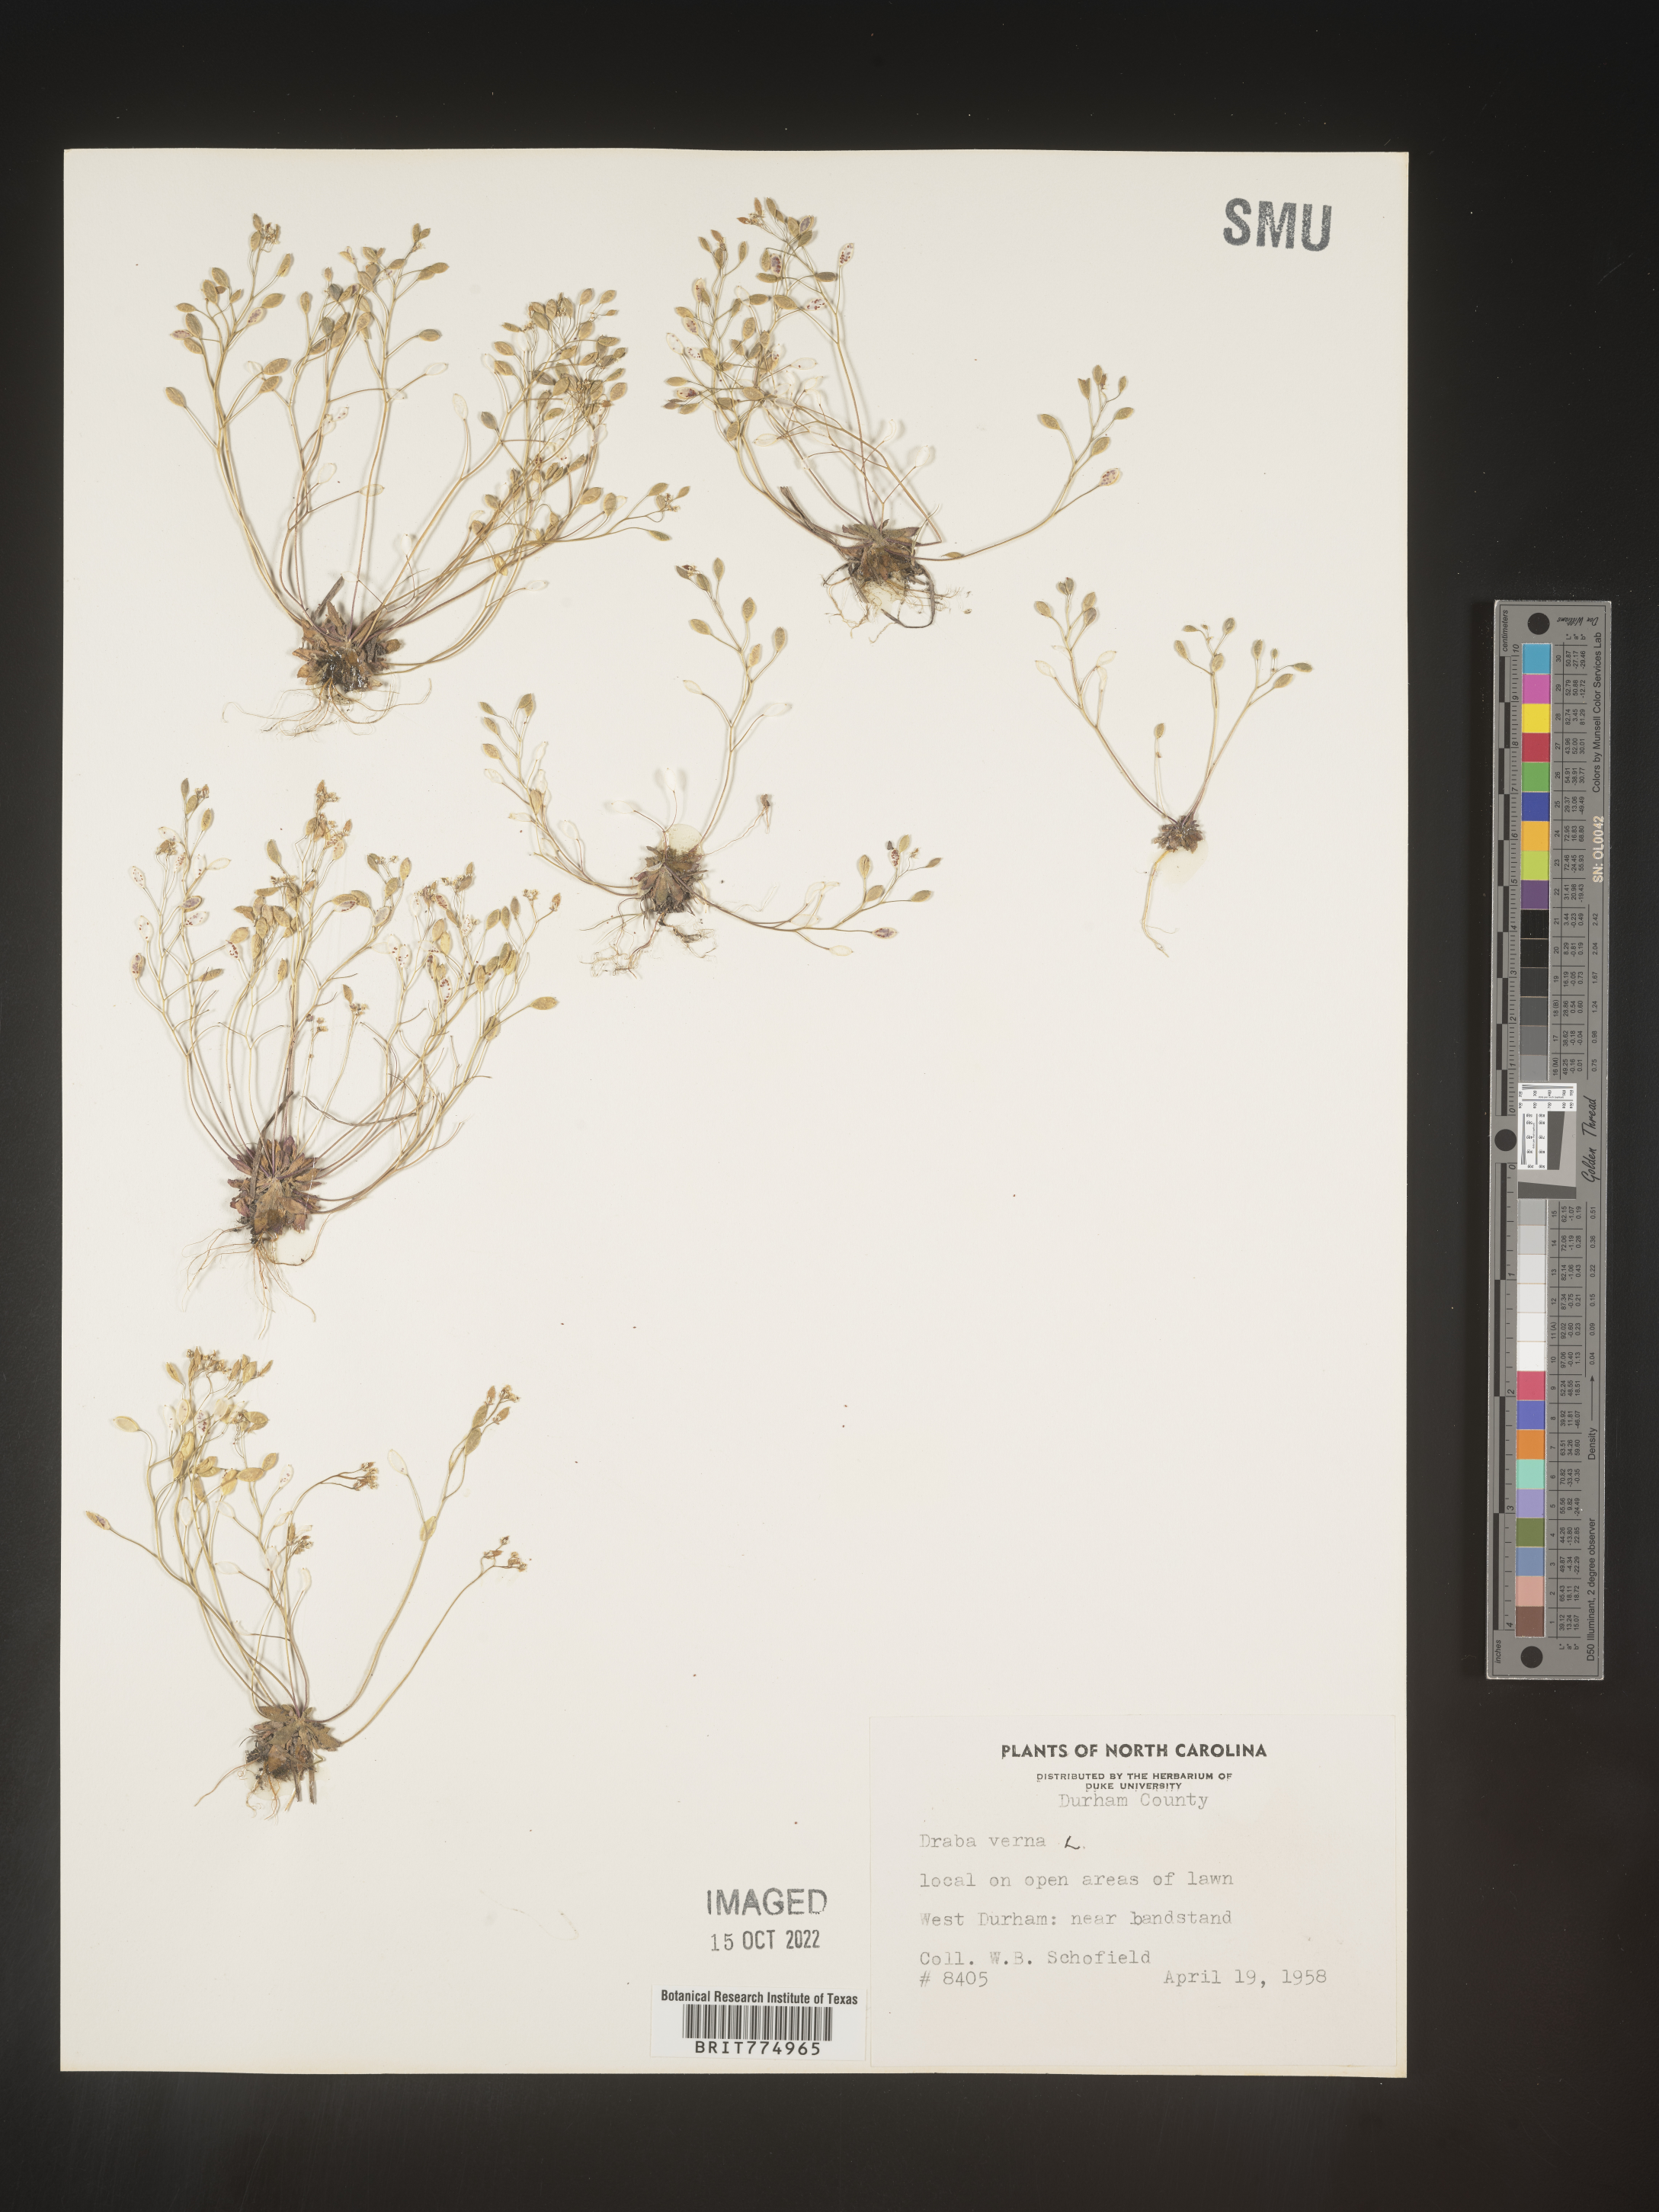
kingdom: Plantae
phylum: Tracheophyta
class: Magnoliopsida
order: Brassicales
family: Brassicaceae
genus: Draba
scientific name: Draba verna
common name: Spring draba
